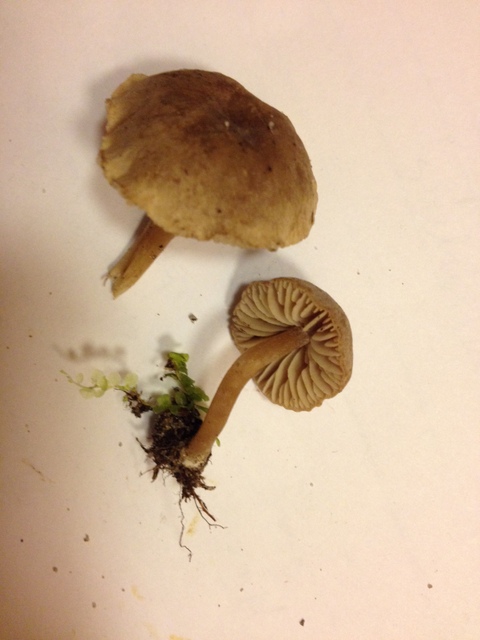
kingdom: Fungi
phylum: Basidiomycota
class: Agaricomycetes
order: Agaricales
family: Callistosporiaceae
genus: Pseudolaccaria
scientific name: Pseudolaccaria pachyphylla
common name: hvælvet tykblad
